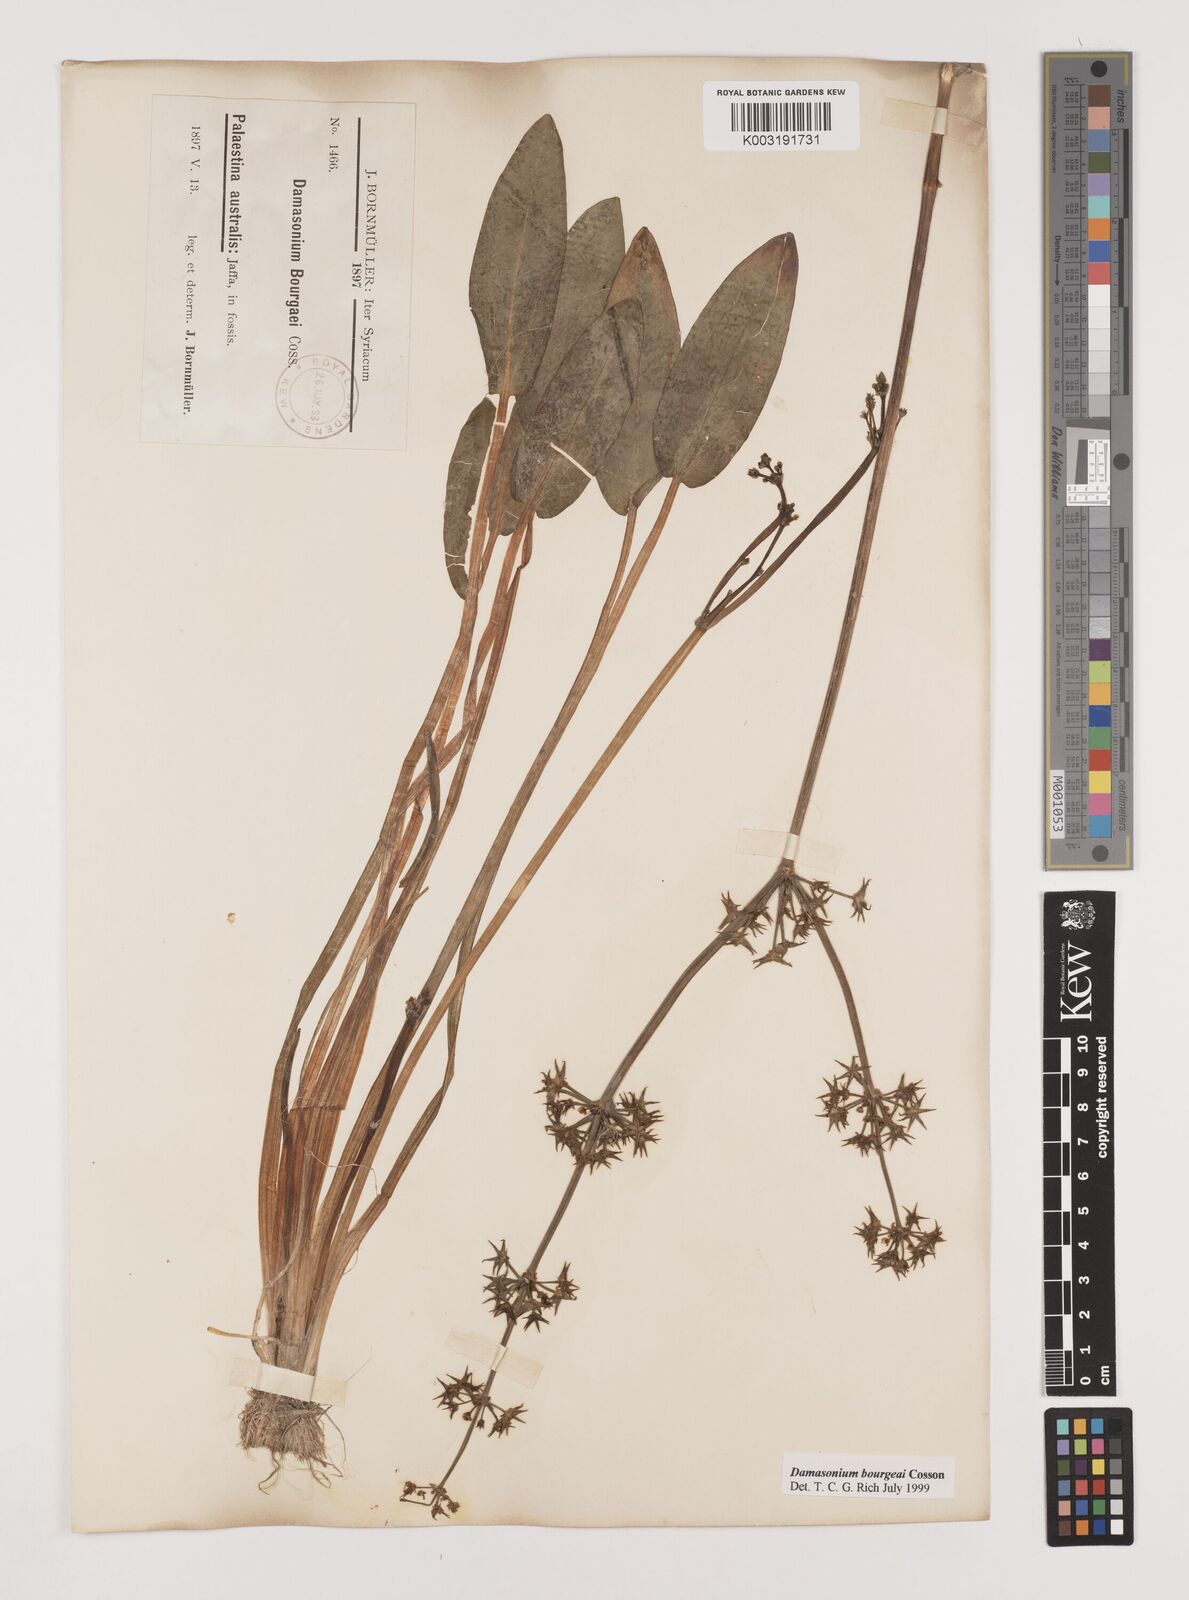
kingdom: Plantae
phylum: Tracheophyta
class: Liliopsida
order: Alismatales
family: Alismataceae
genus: Damasonium
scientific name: Damasonium alisma
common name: Starfruit
